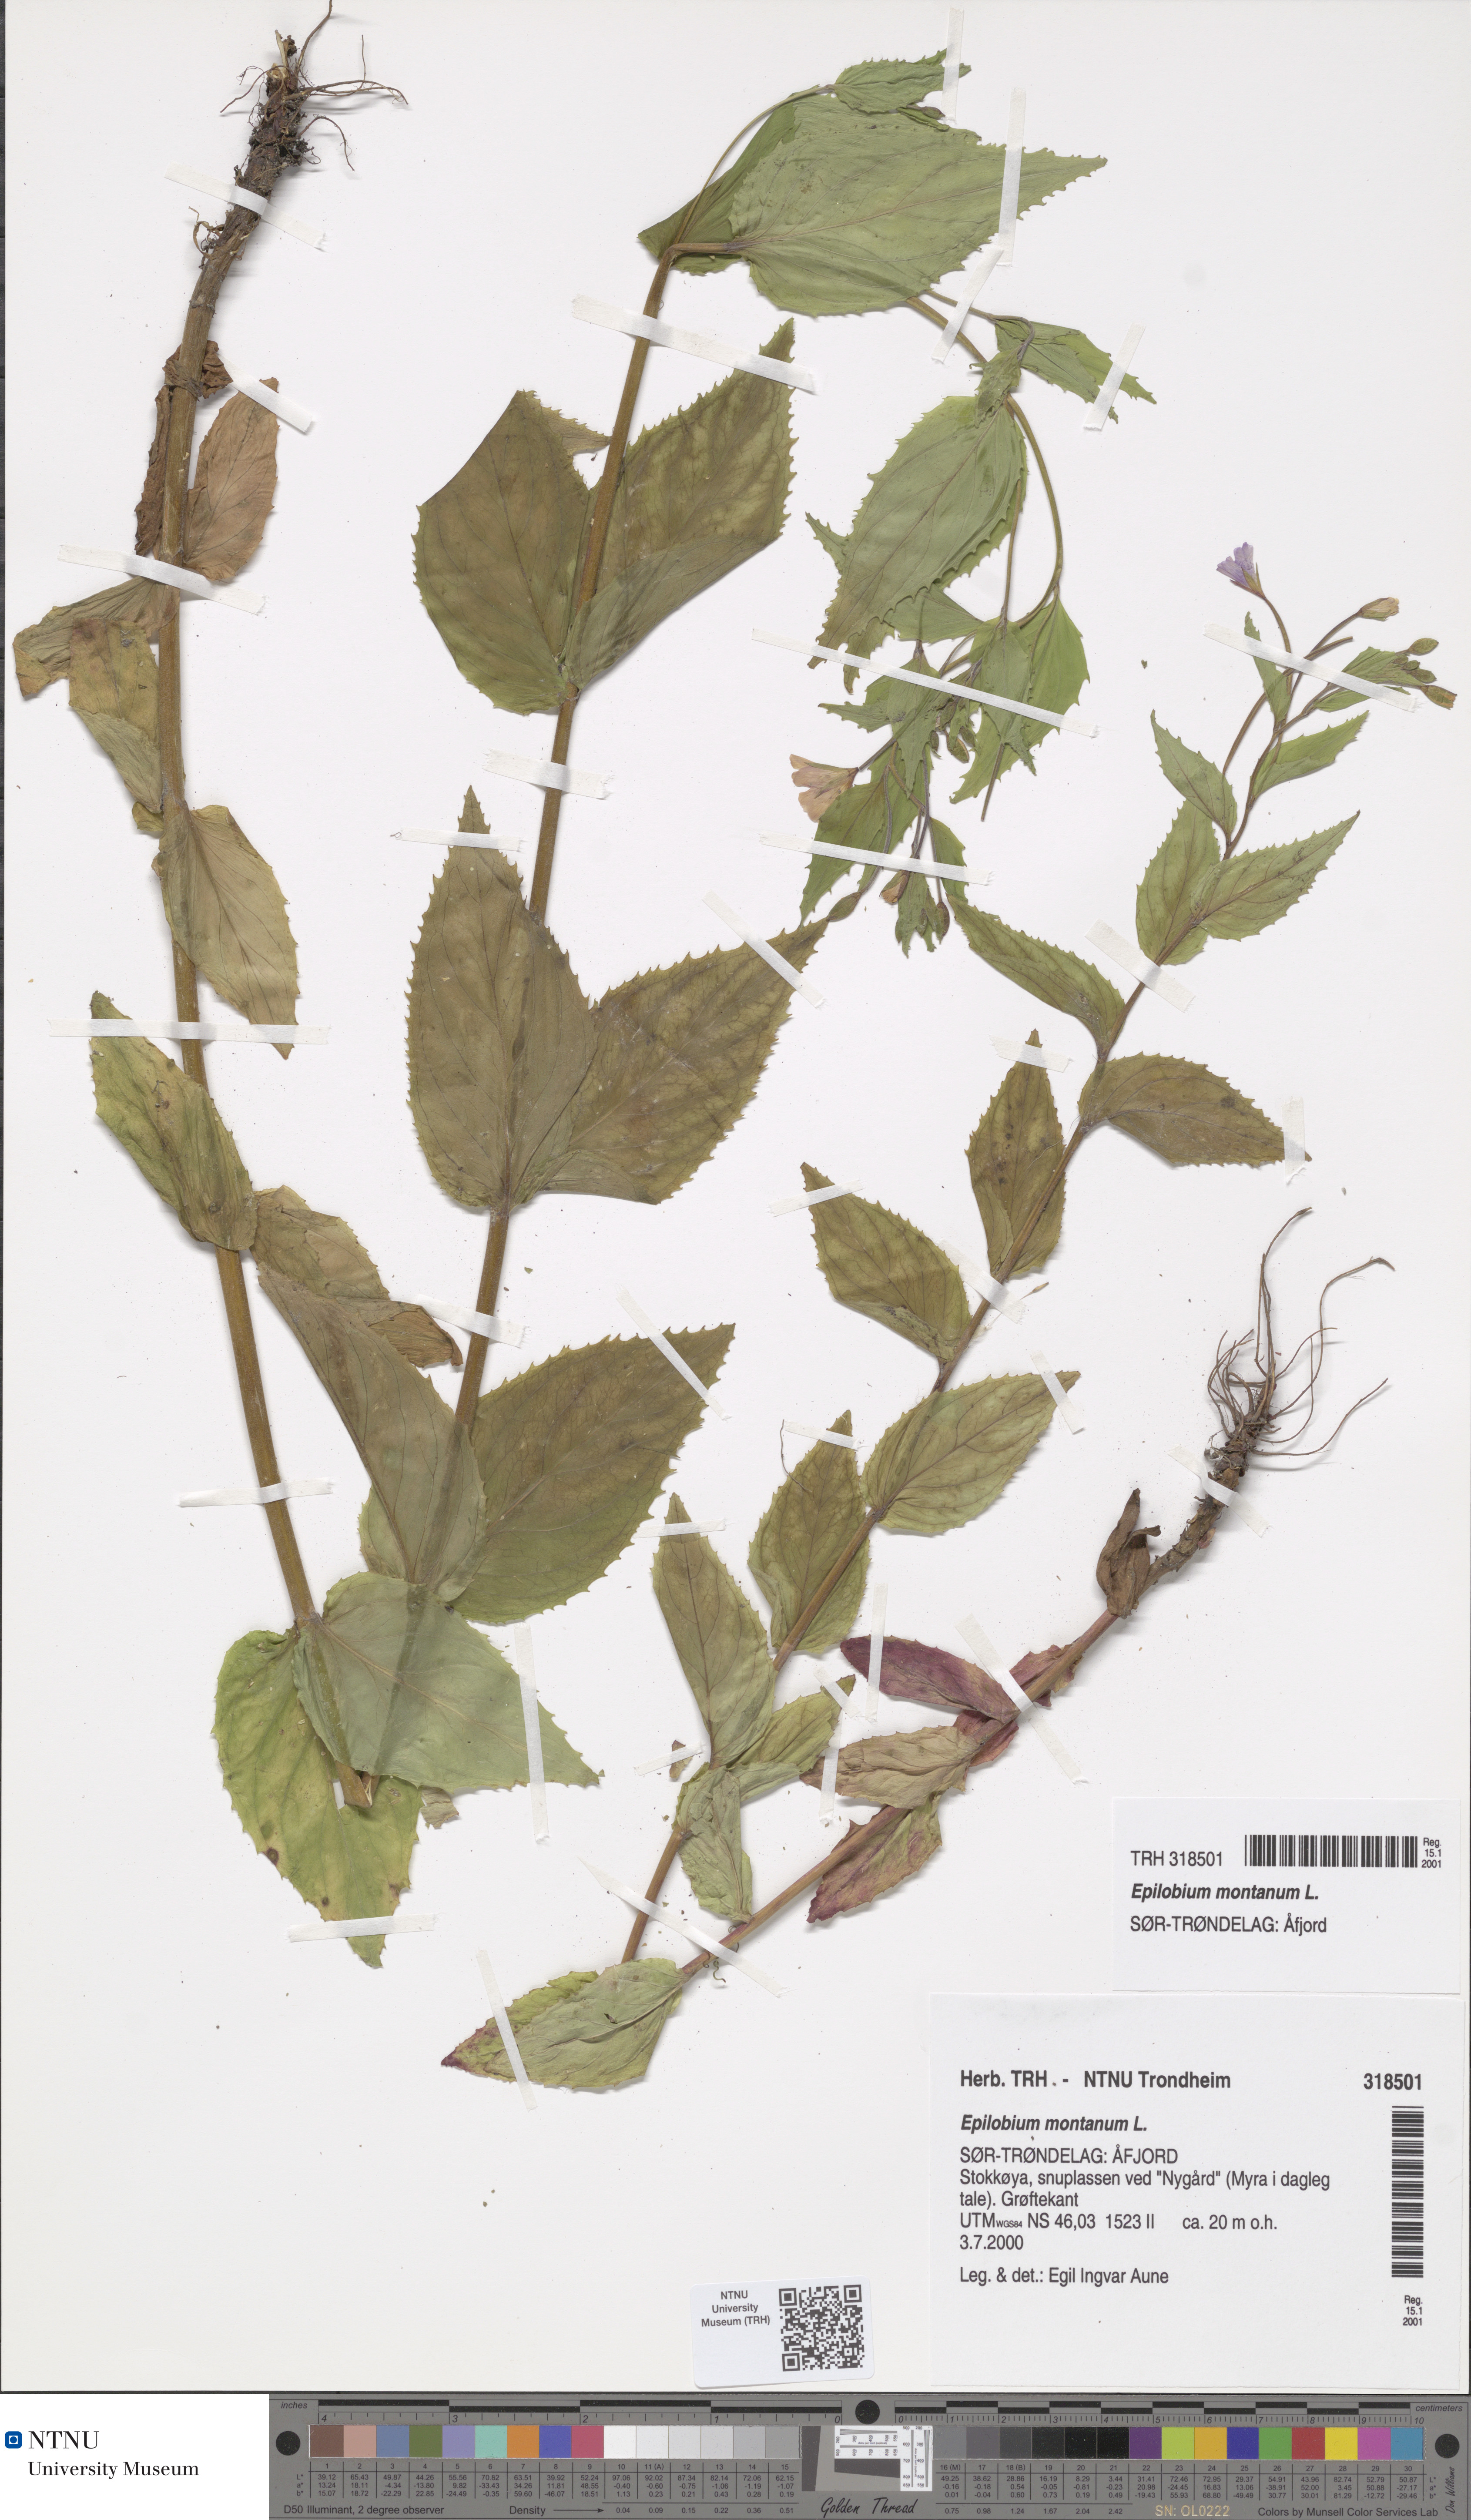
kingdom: Plantae
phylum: Tracheophyta
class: Magnoliopsida
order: Myrtales
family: Onagraceae
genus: Epilobium
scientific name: Epilobium montanum
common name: Broad-leaved willowherb
